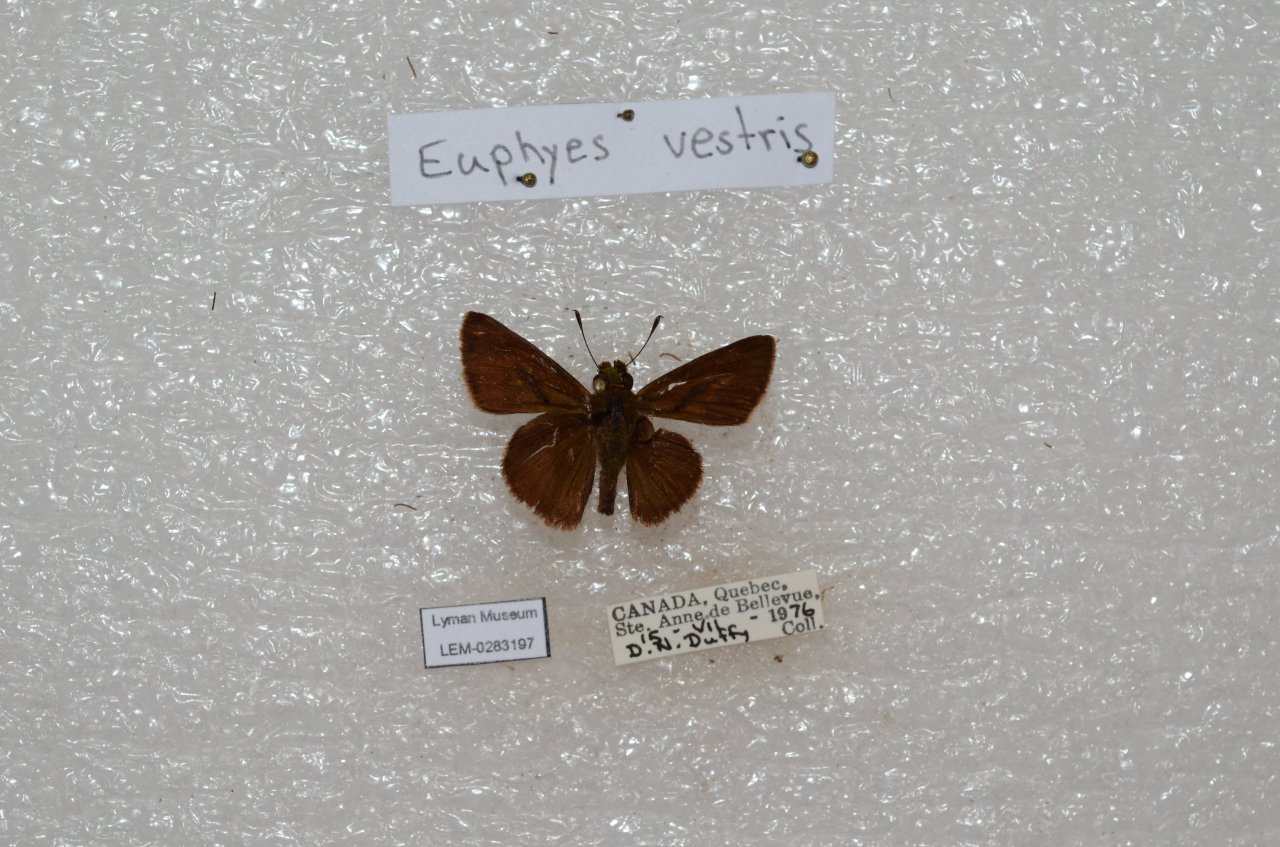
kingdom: Animalia
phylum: Arthropoda
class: Insecta
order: Lepidoptera
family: Hesperiidae
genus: Euphyes
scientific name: Euphyes vestris
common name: Dun Skipper
